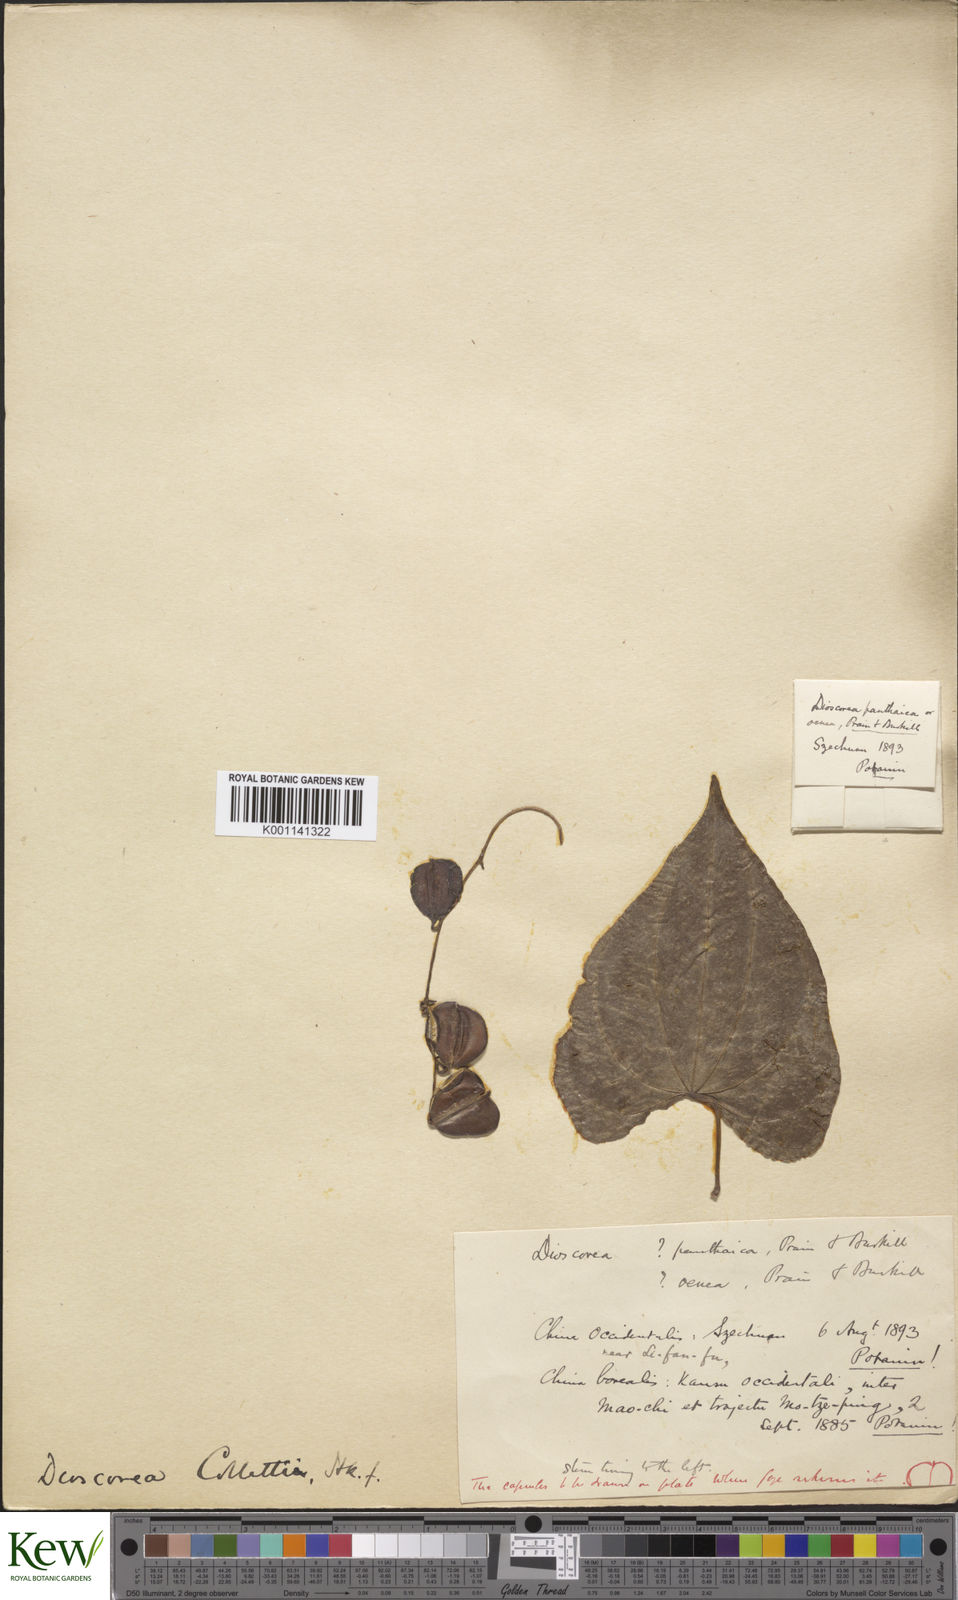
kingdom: Plantae
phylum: Tracheophyta
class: Liliopsida
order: Dioscoreales
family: Dioscoreaceae
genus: Dioscorea
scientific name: Dioscorea collettii
